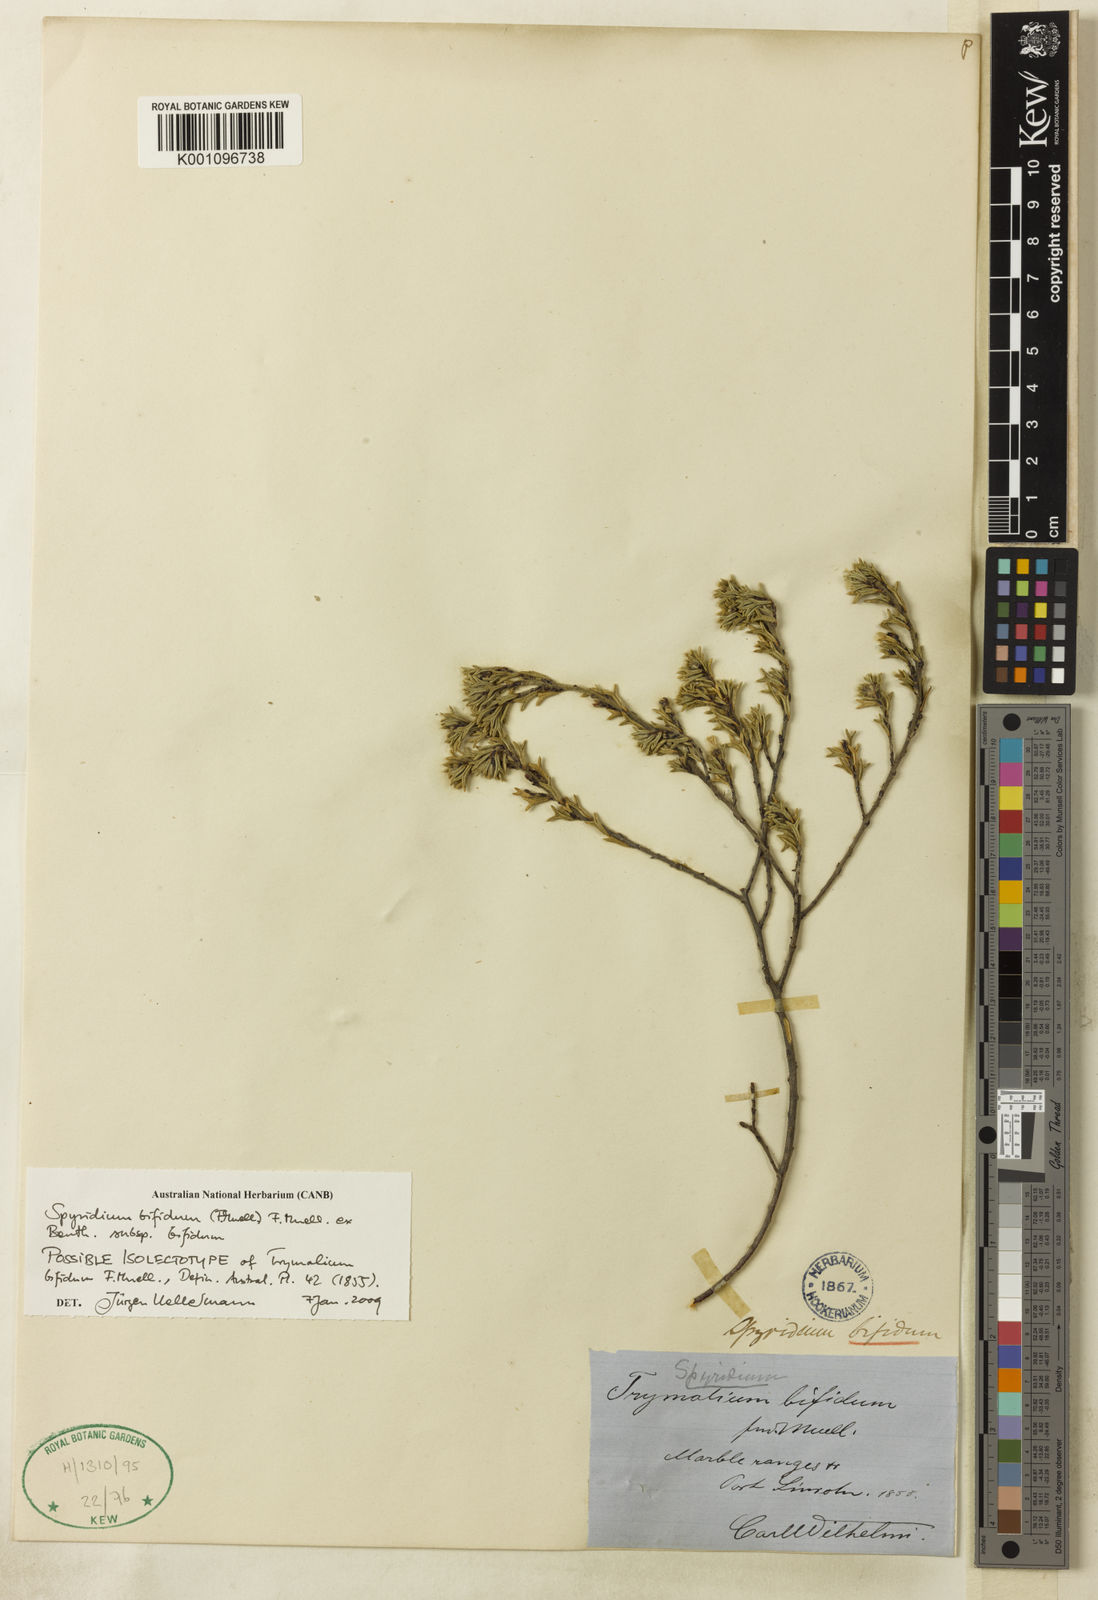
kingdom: Plantae
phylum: Tracheophyta
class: Magnoliopsida
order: Rosales
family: Rhamnaceae
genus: Spyridium
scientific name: Spyridium bifidum
